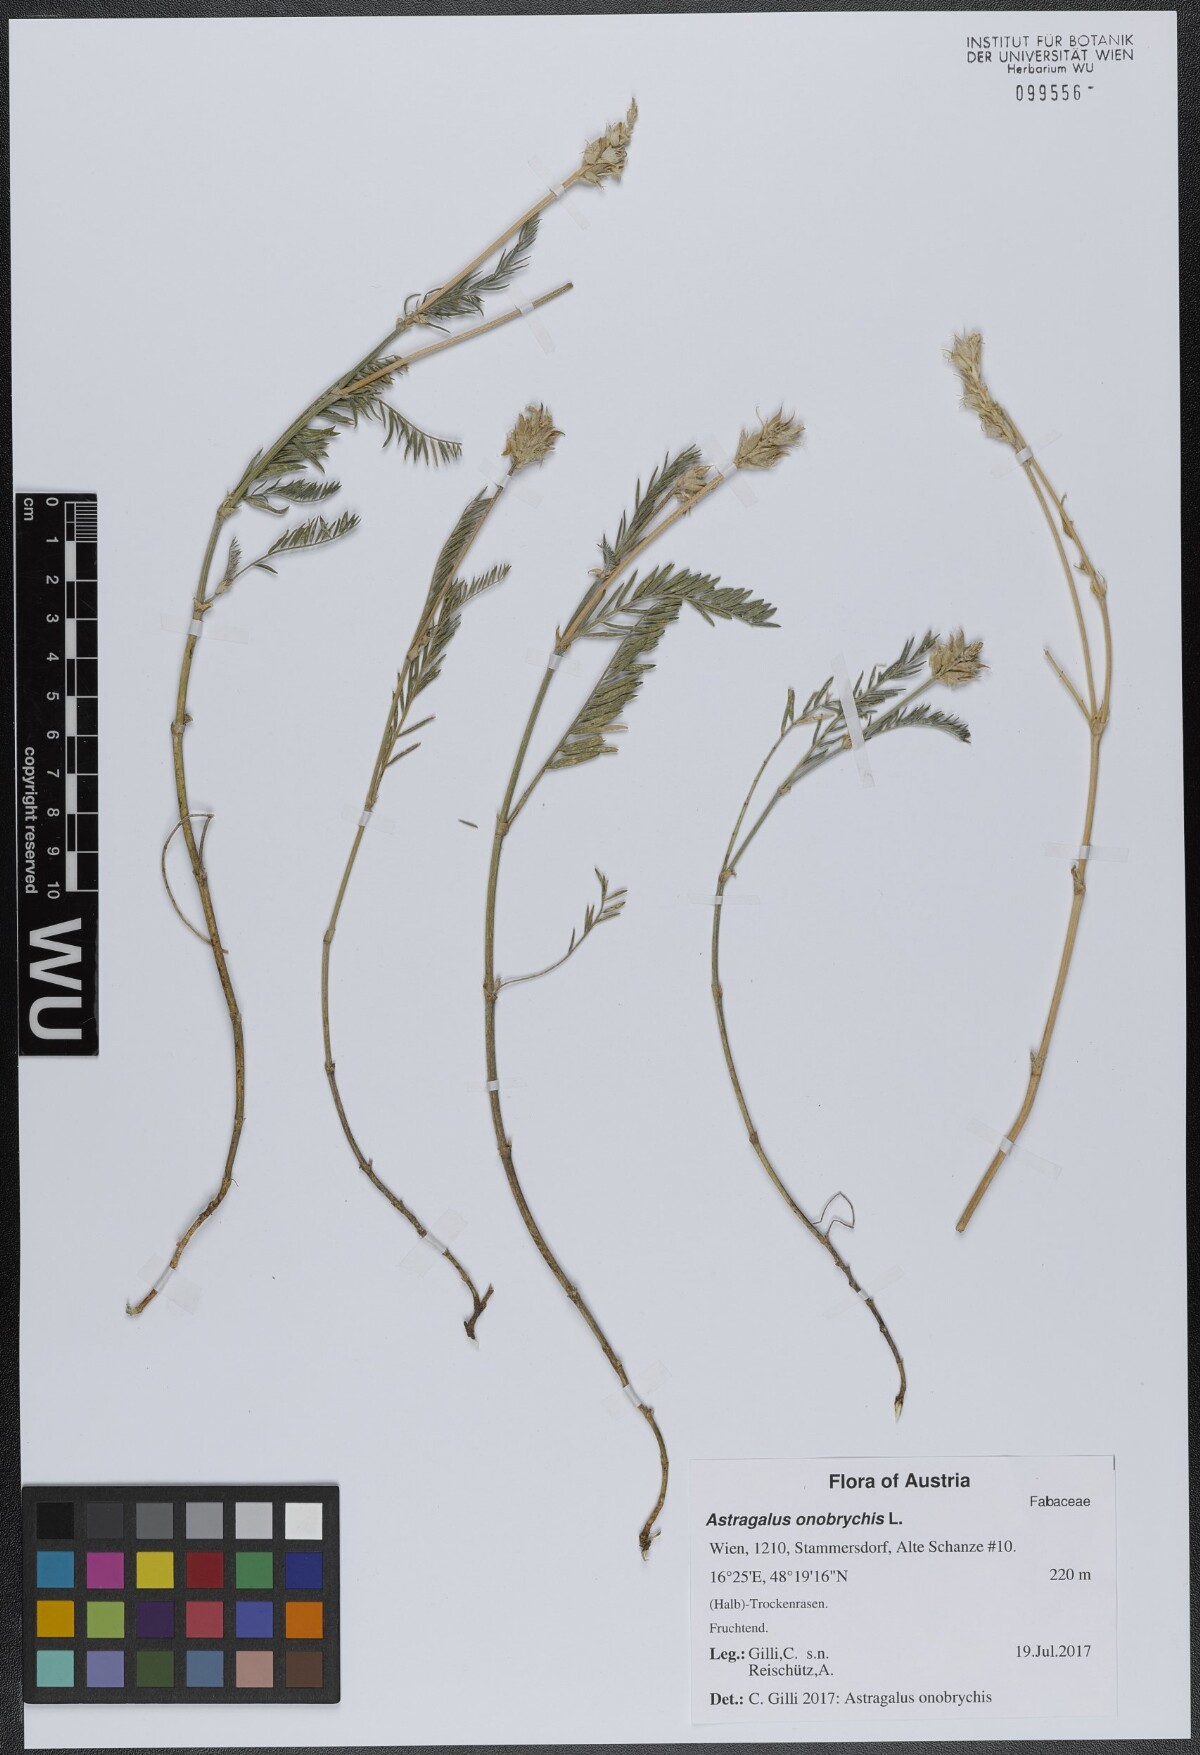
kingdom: Plantae
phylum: Tracheophyta
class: Magnoliopsida
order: Fabales
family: Fabaceae
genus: Astragalus
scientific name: Astragalus onobrychis
